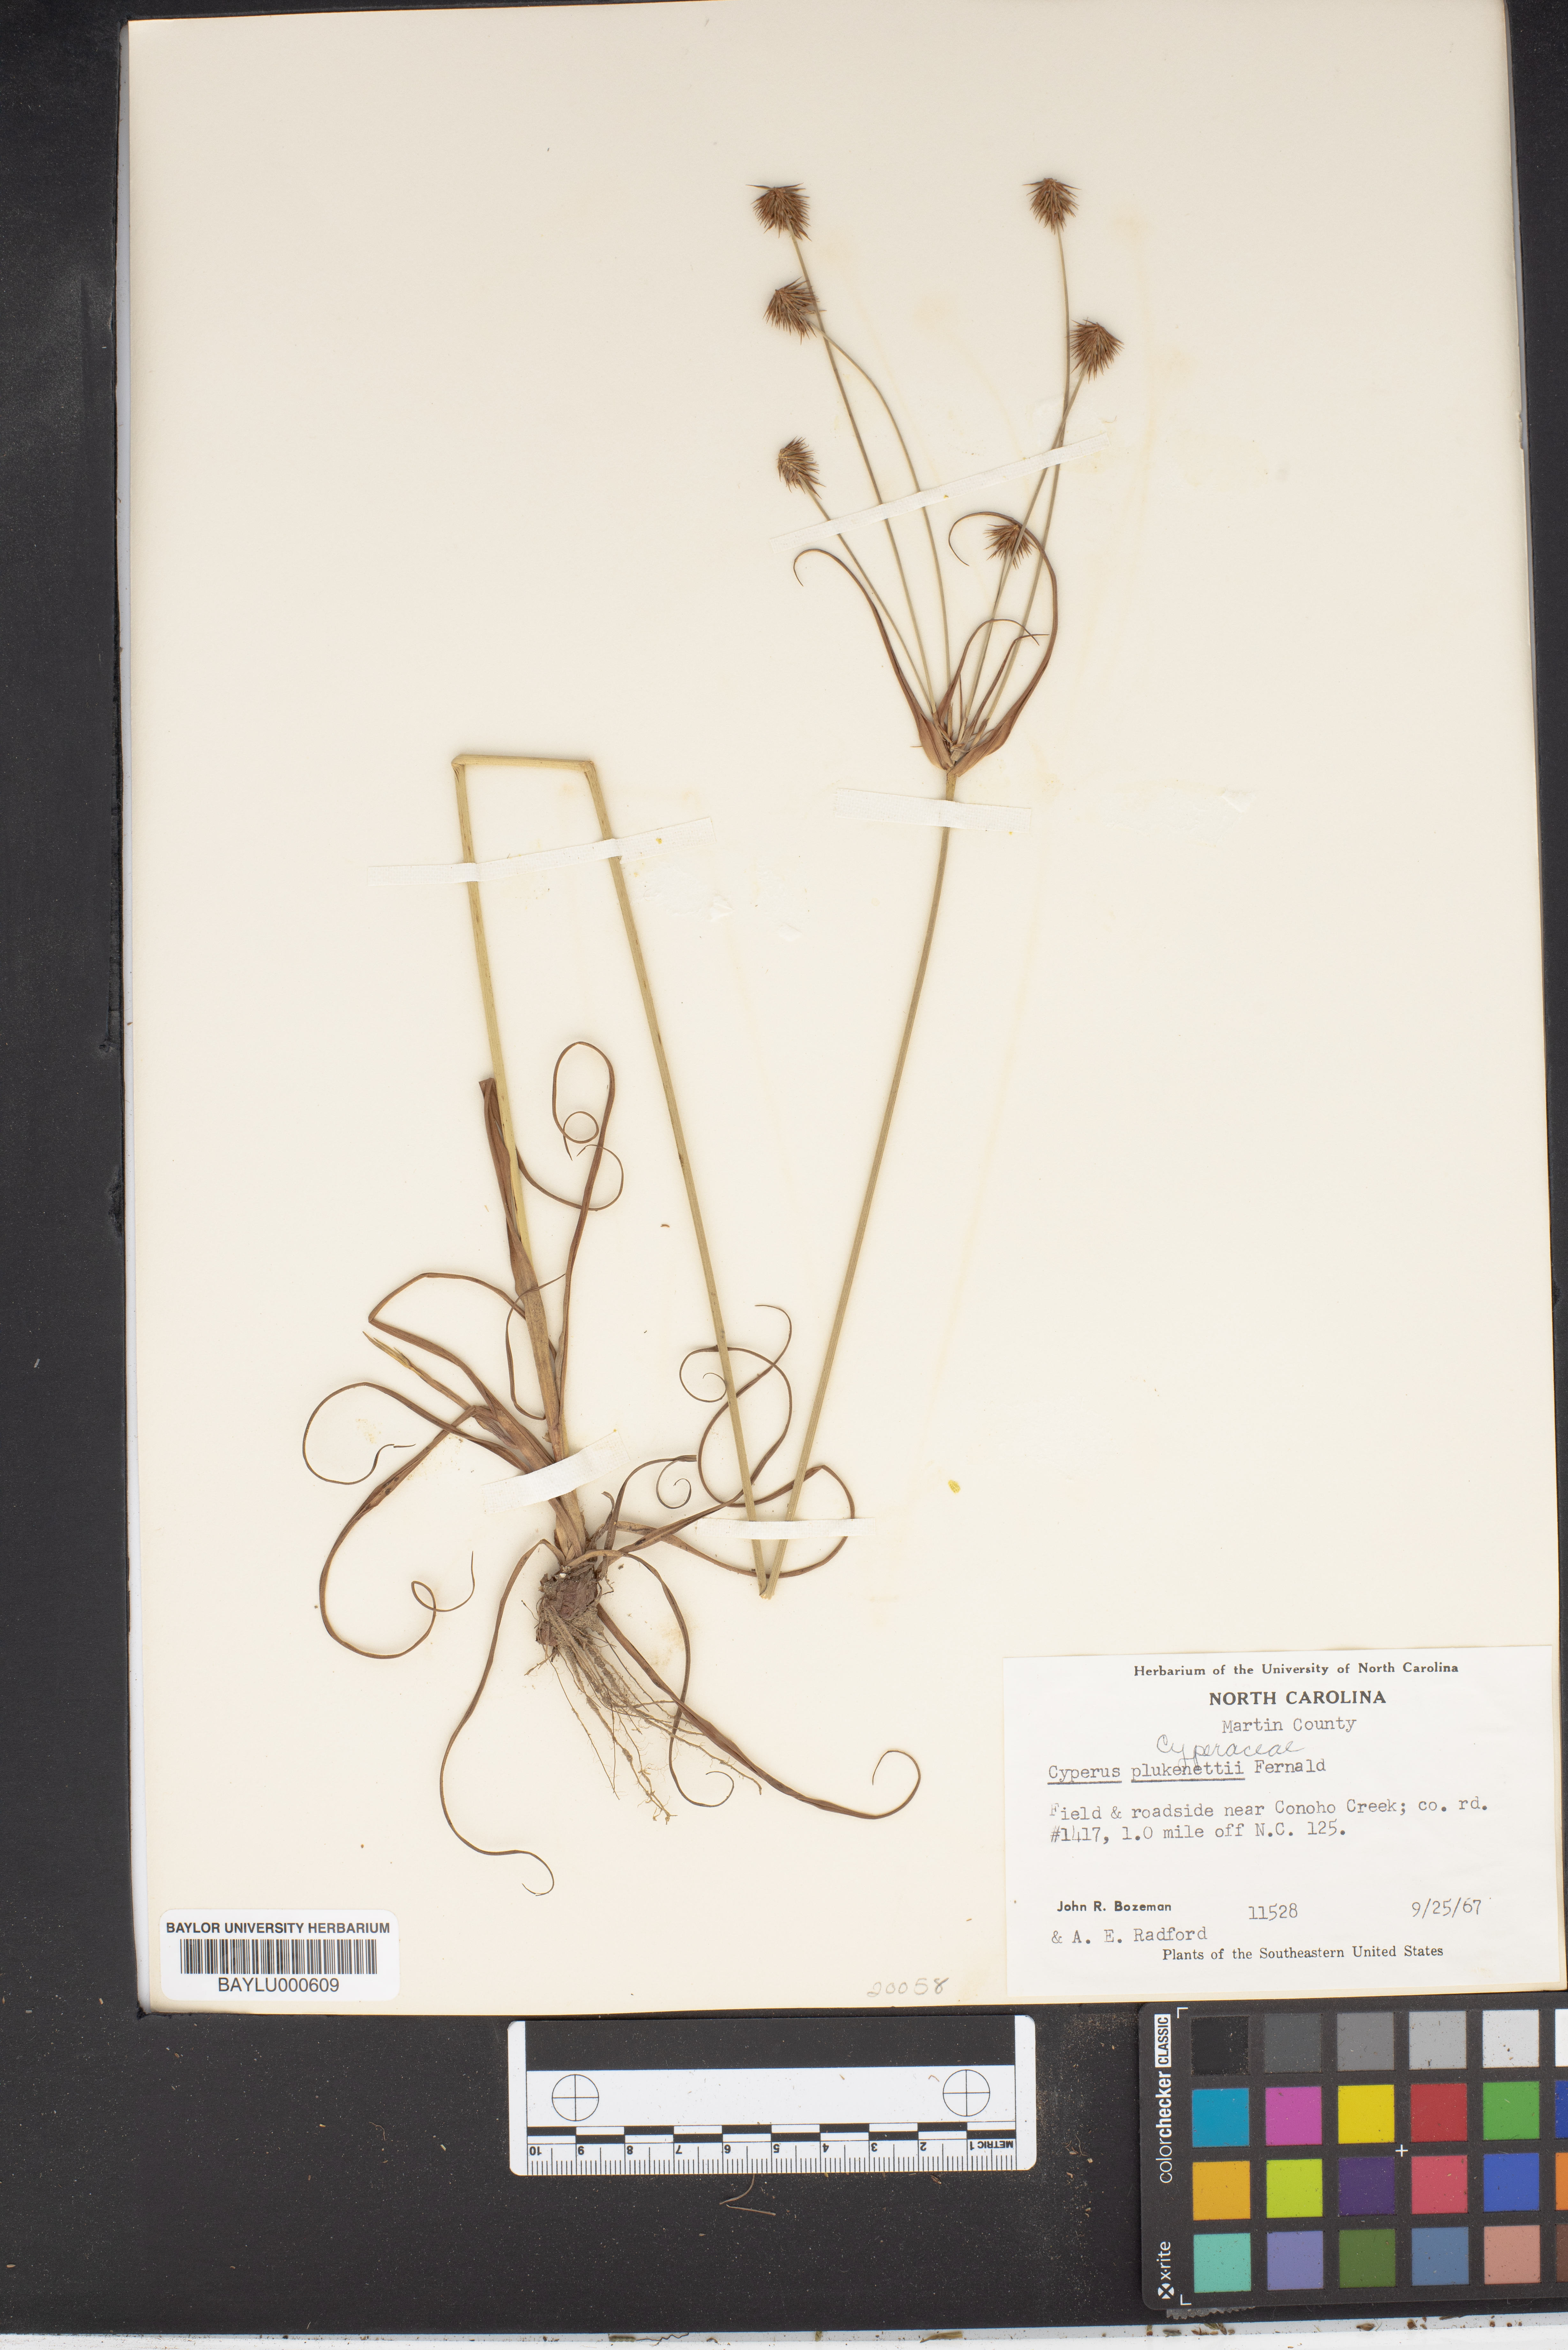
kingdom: Plantae
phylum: Tracheophyta
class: Liliopsida
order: Poales
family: Cyperaceae
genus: Cyperus
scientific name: Cyperus plukenetii
